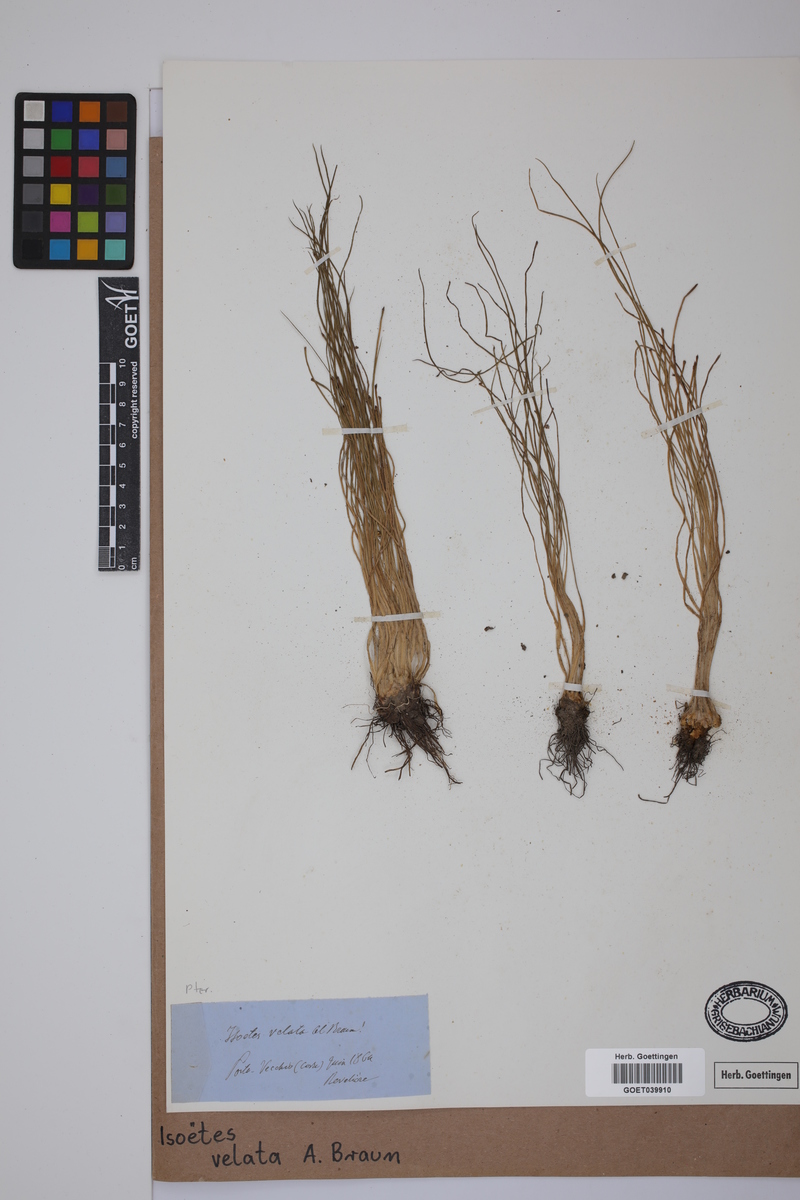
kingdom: Plantae
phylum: Tracheophyta
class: Lycopodiopsida
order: Isoetales
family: Isoetaceae
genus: Isoetes
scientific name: Isoetes longissima
